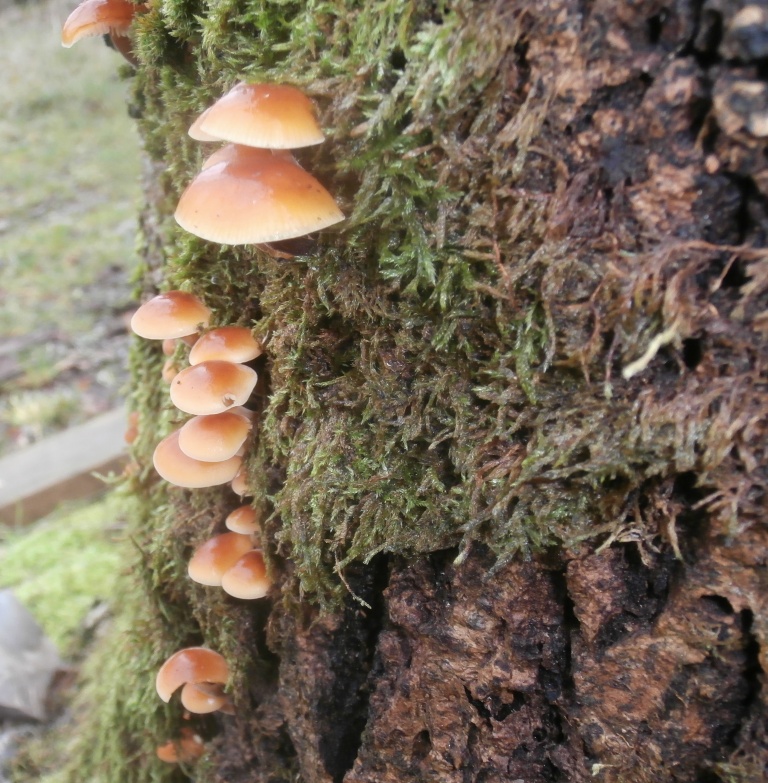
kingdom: Fungi
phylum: Basidiomycota
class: Agaricomycetes
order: Agaricales
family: Physalacriaceae
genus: Flammulina
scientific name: Flammulina velutipes
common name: gul fløjlsfod
